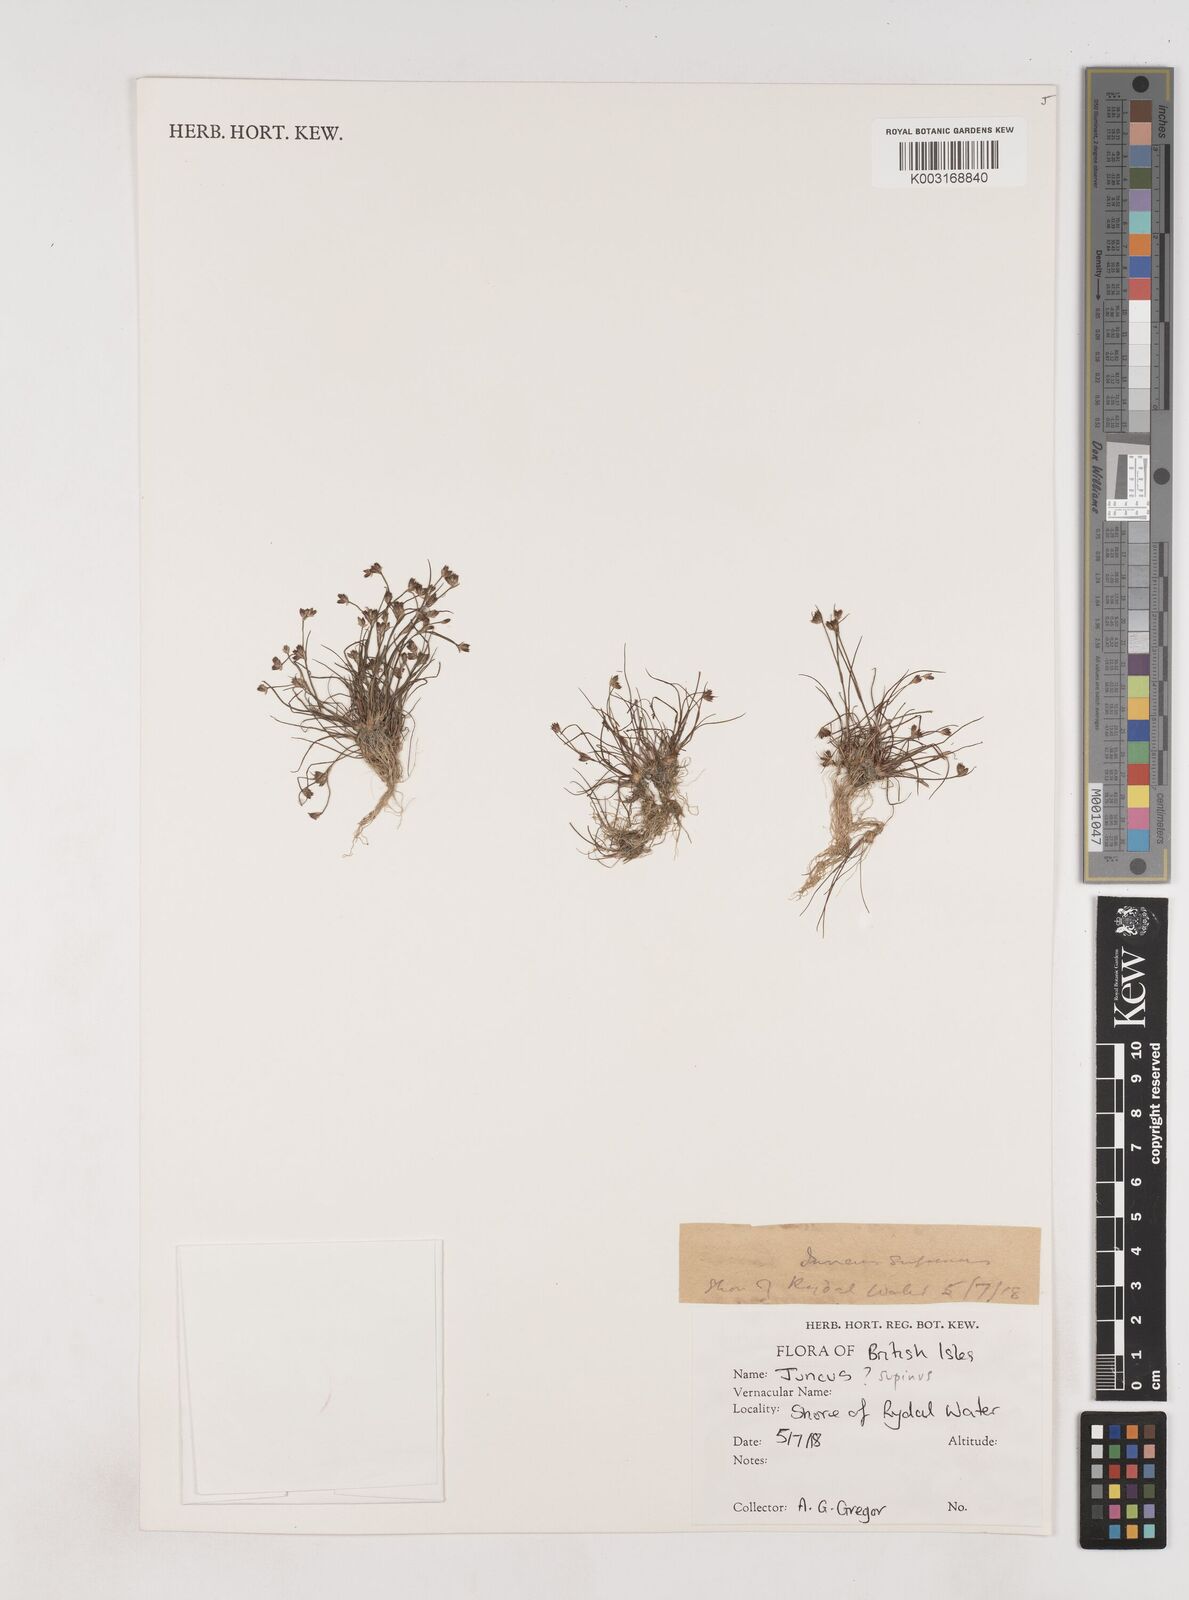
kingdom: Plantae
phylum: Tracheophyta
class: Liliopsida
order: Poales
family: Juncaceae
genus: Juncus
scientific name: Juncus bulbosus
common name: Bulbous rush
